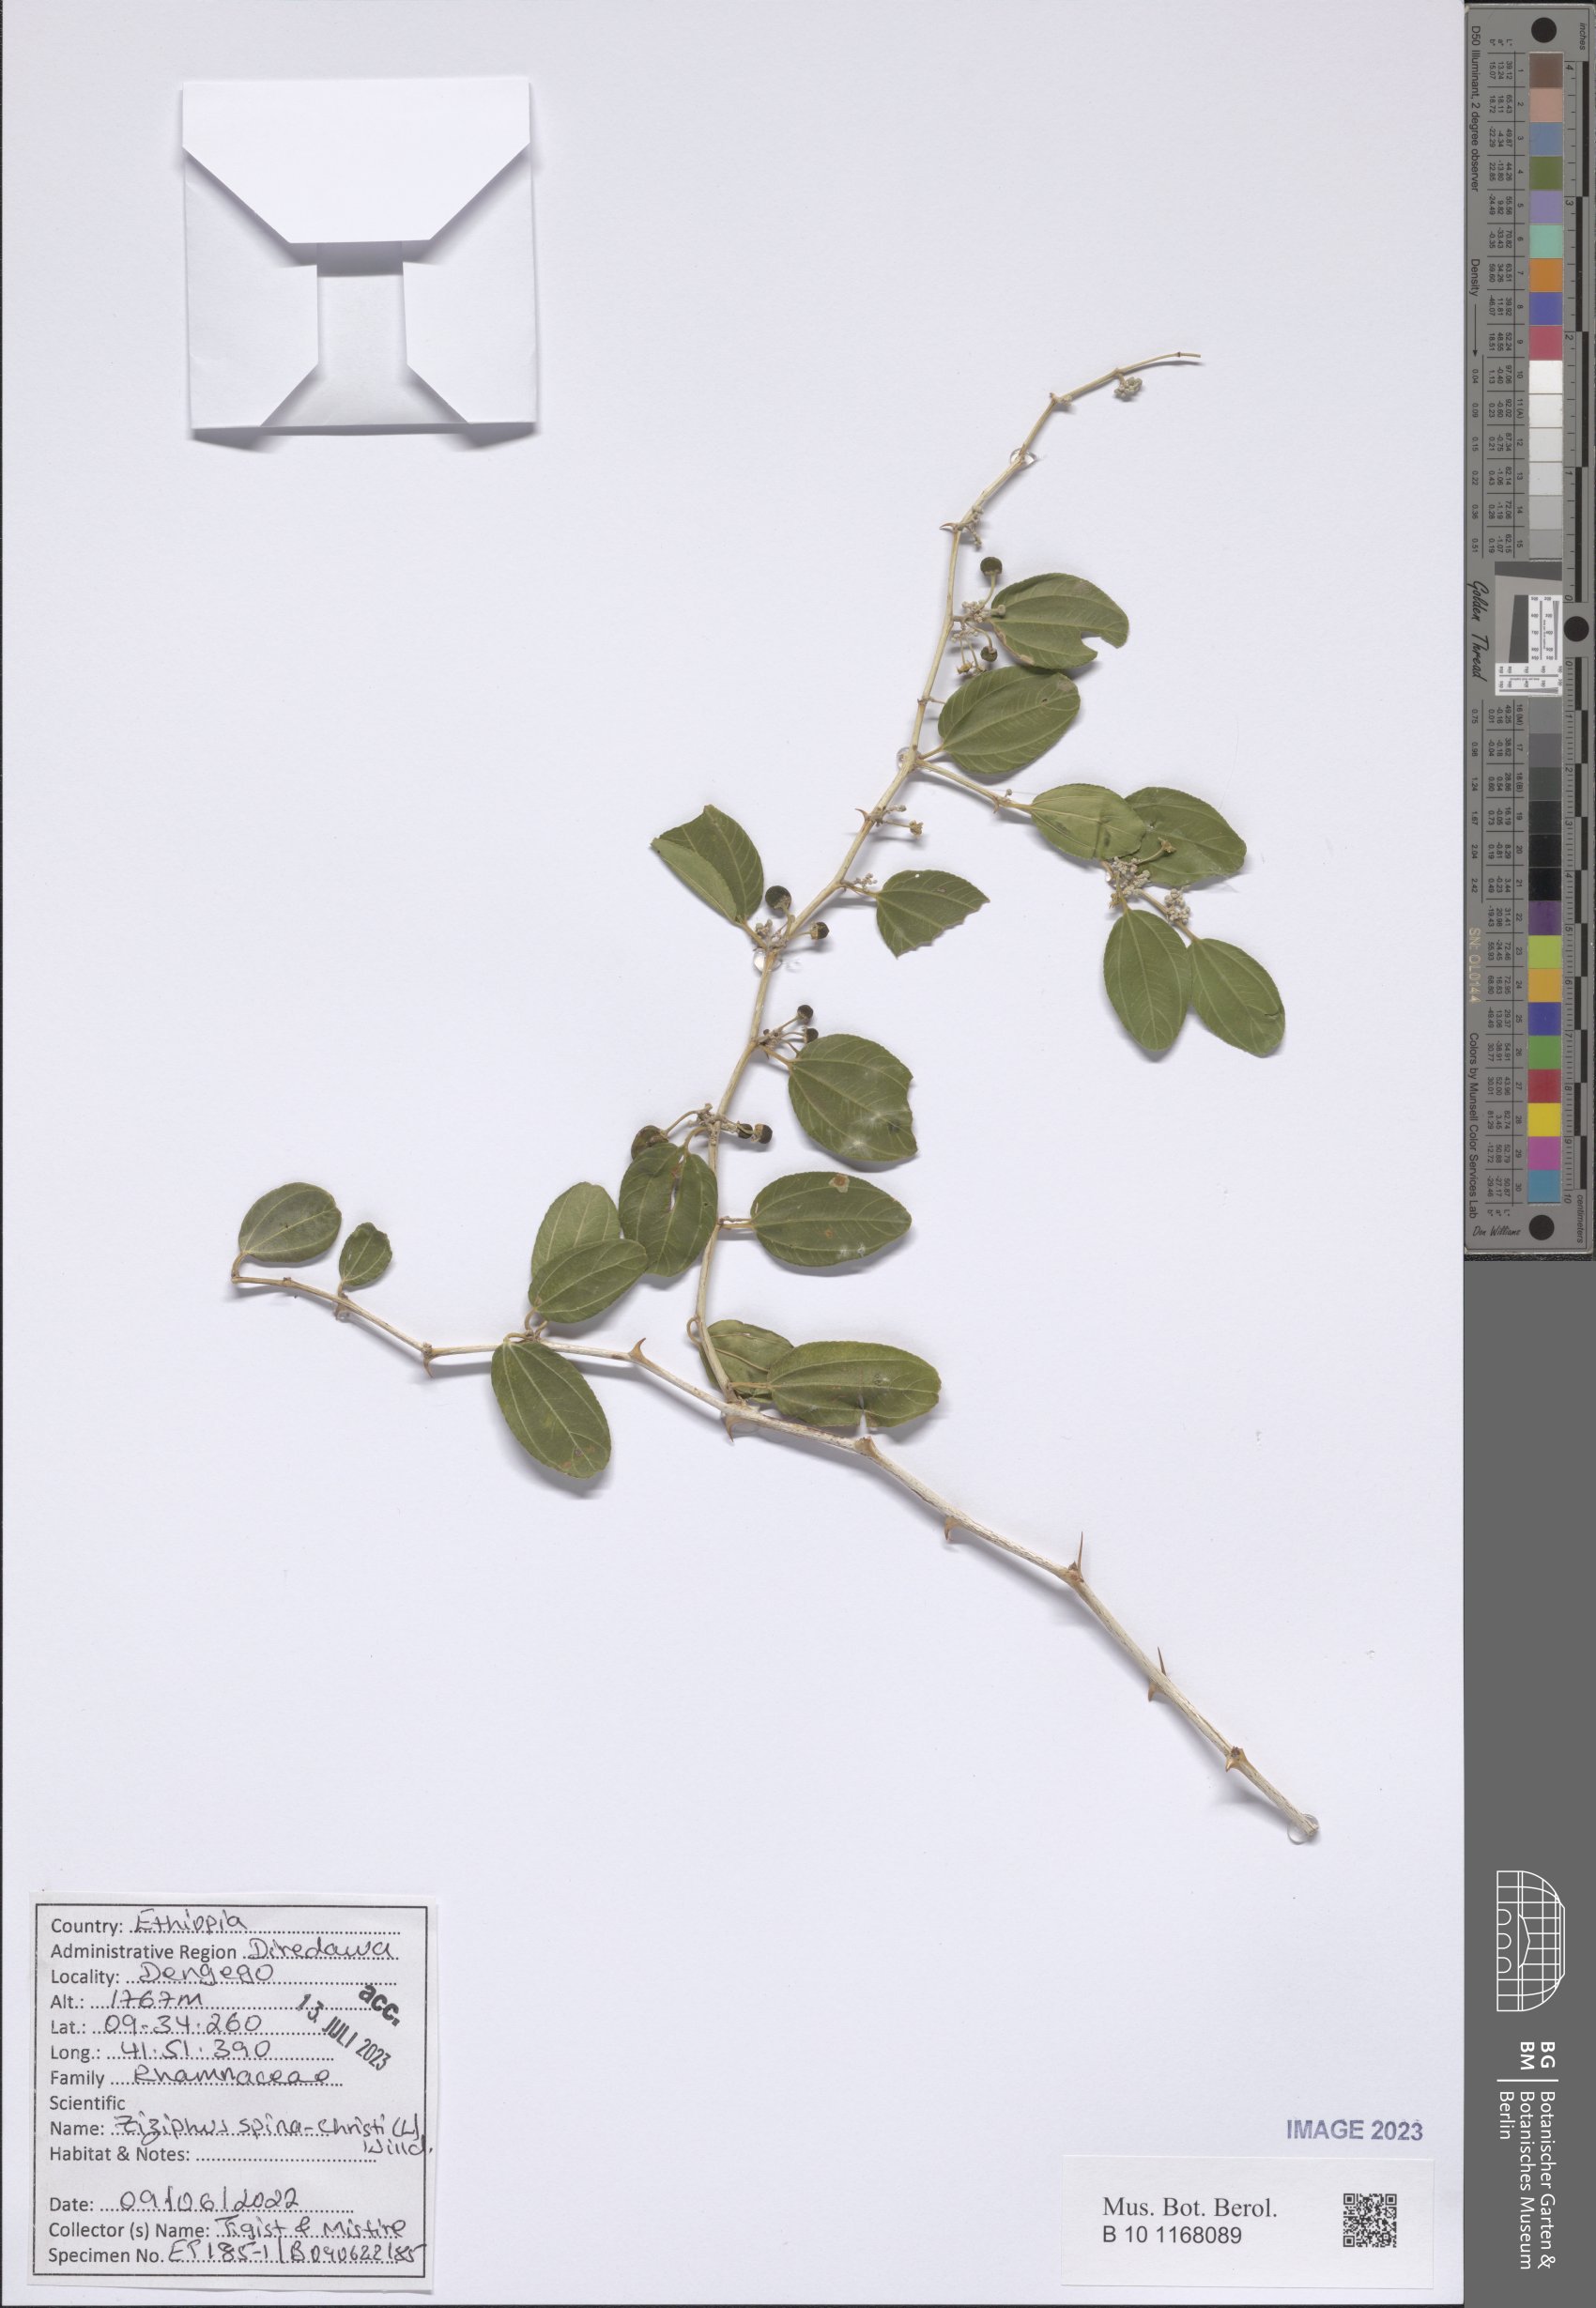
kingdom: Plantae
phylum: Tracheophyta
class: Magnoliopsida
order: Rosales
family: Rhamnaceae
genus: Ziziphus
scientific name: Ziziphus spina-christi
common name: Syrian christ-thorn
